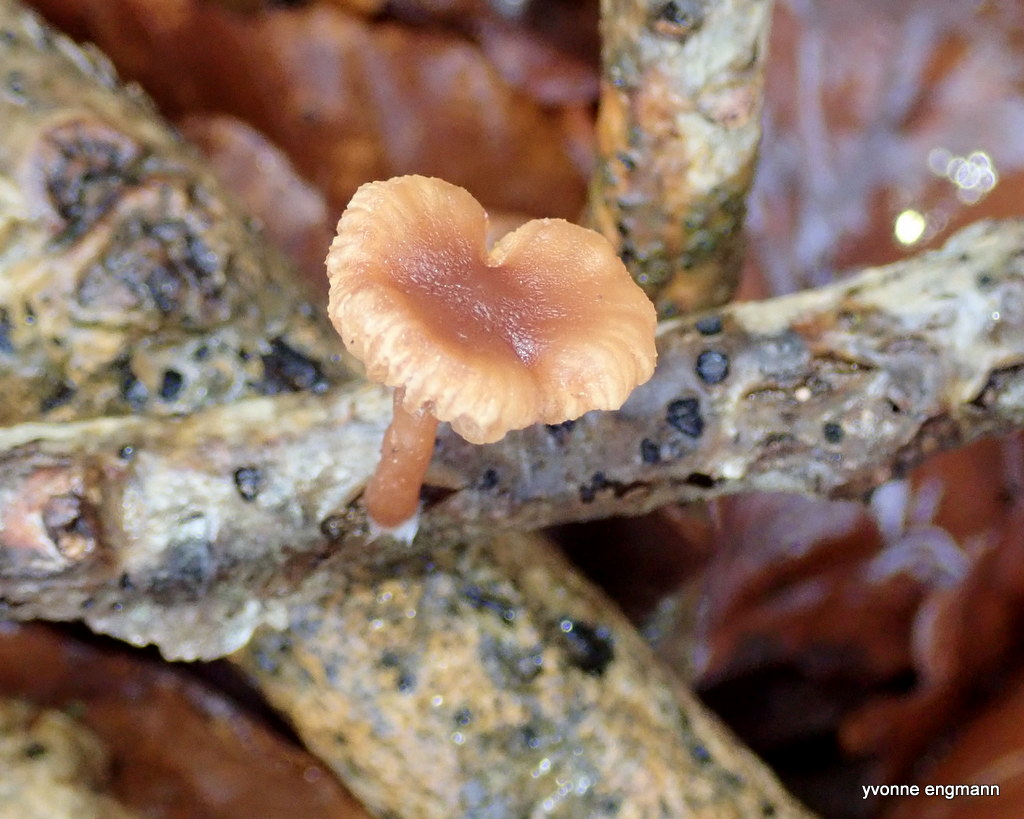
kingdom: Fungi
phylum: Basidiomycota
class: Agaricomycetes
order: Agaricales
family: Tubariaceae
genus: Tubaria
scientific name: Tubaria
